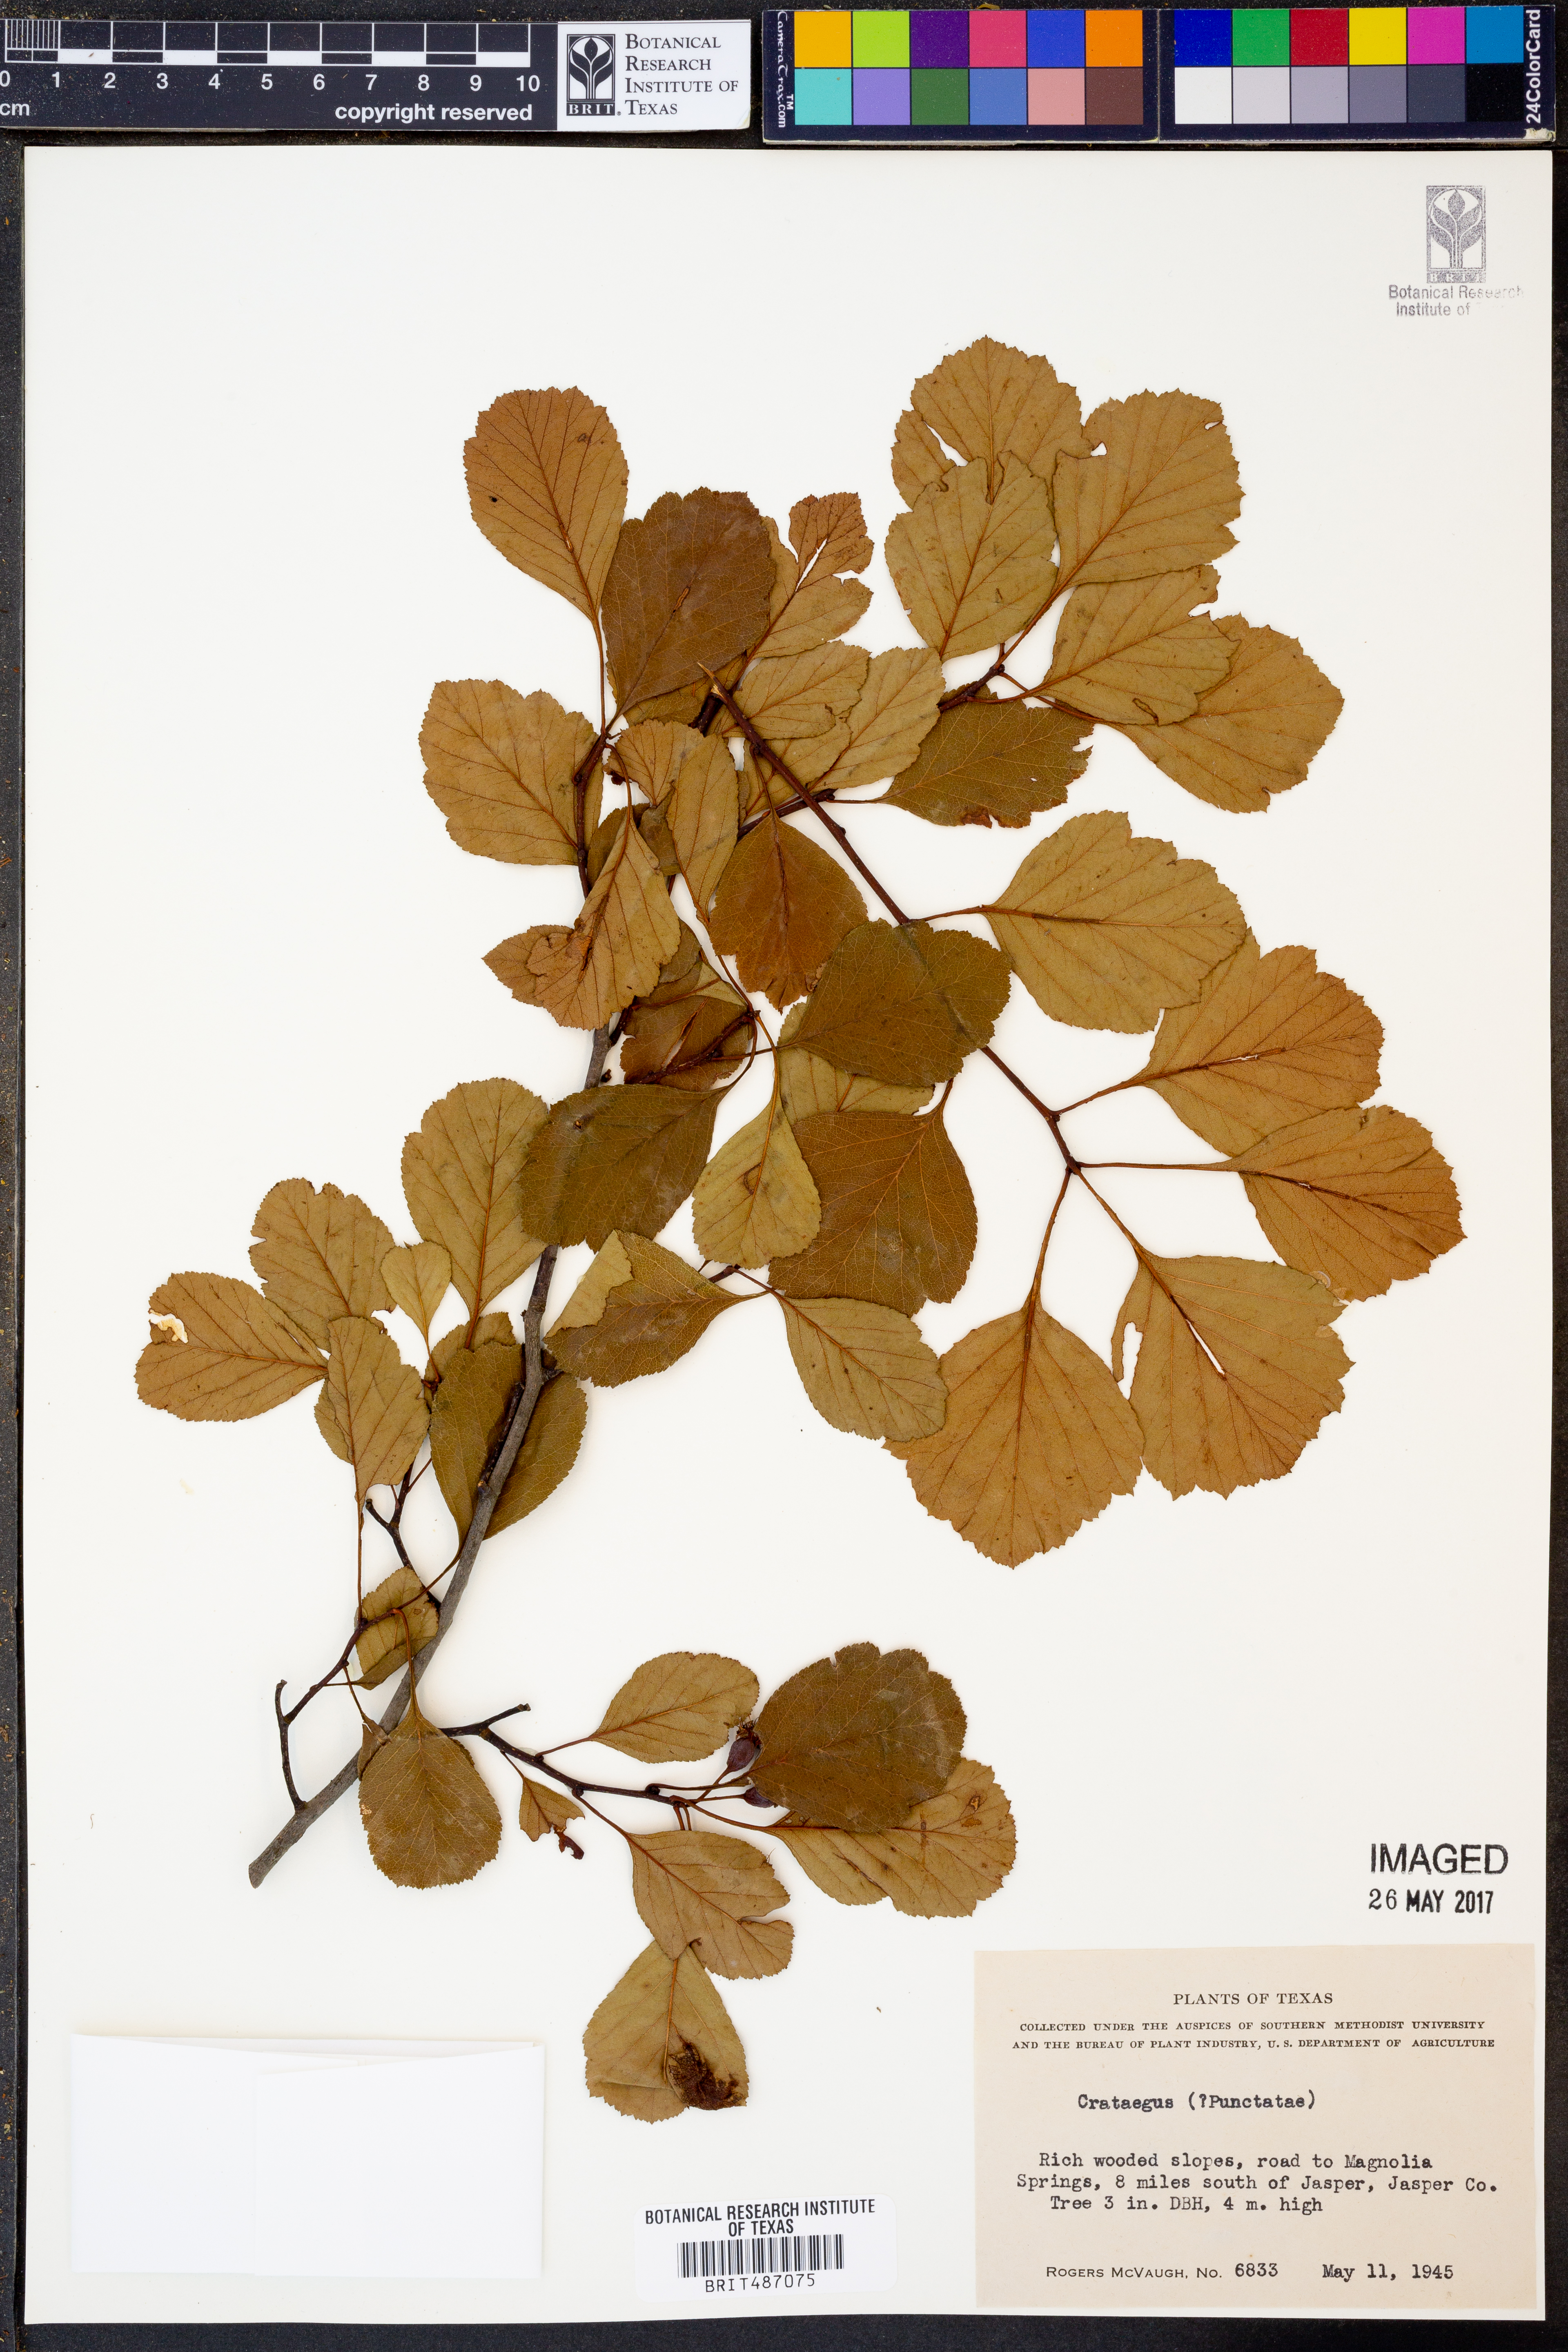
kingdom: Plantae
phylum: Tracheophyta
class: Magnoliopsida
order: Rosales
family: Rosaceae
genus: Crataegus
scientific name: Crataegus
